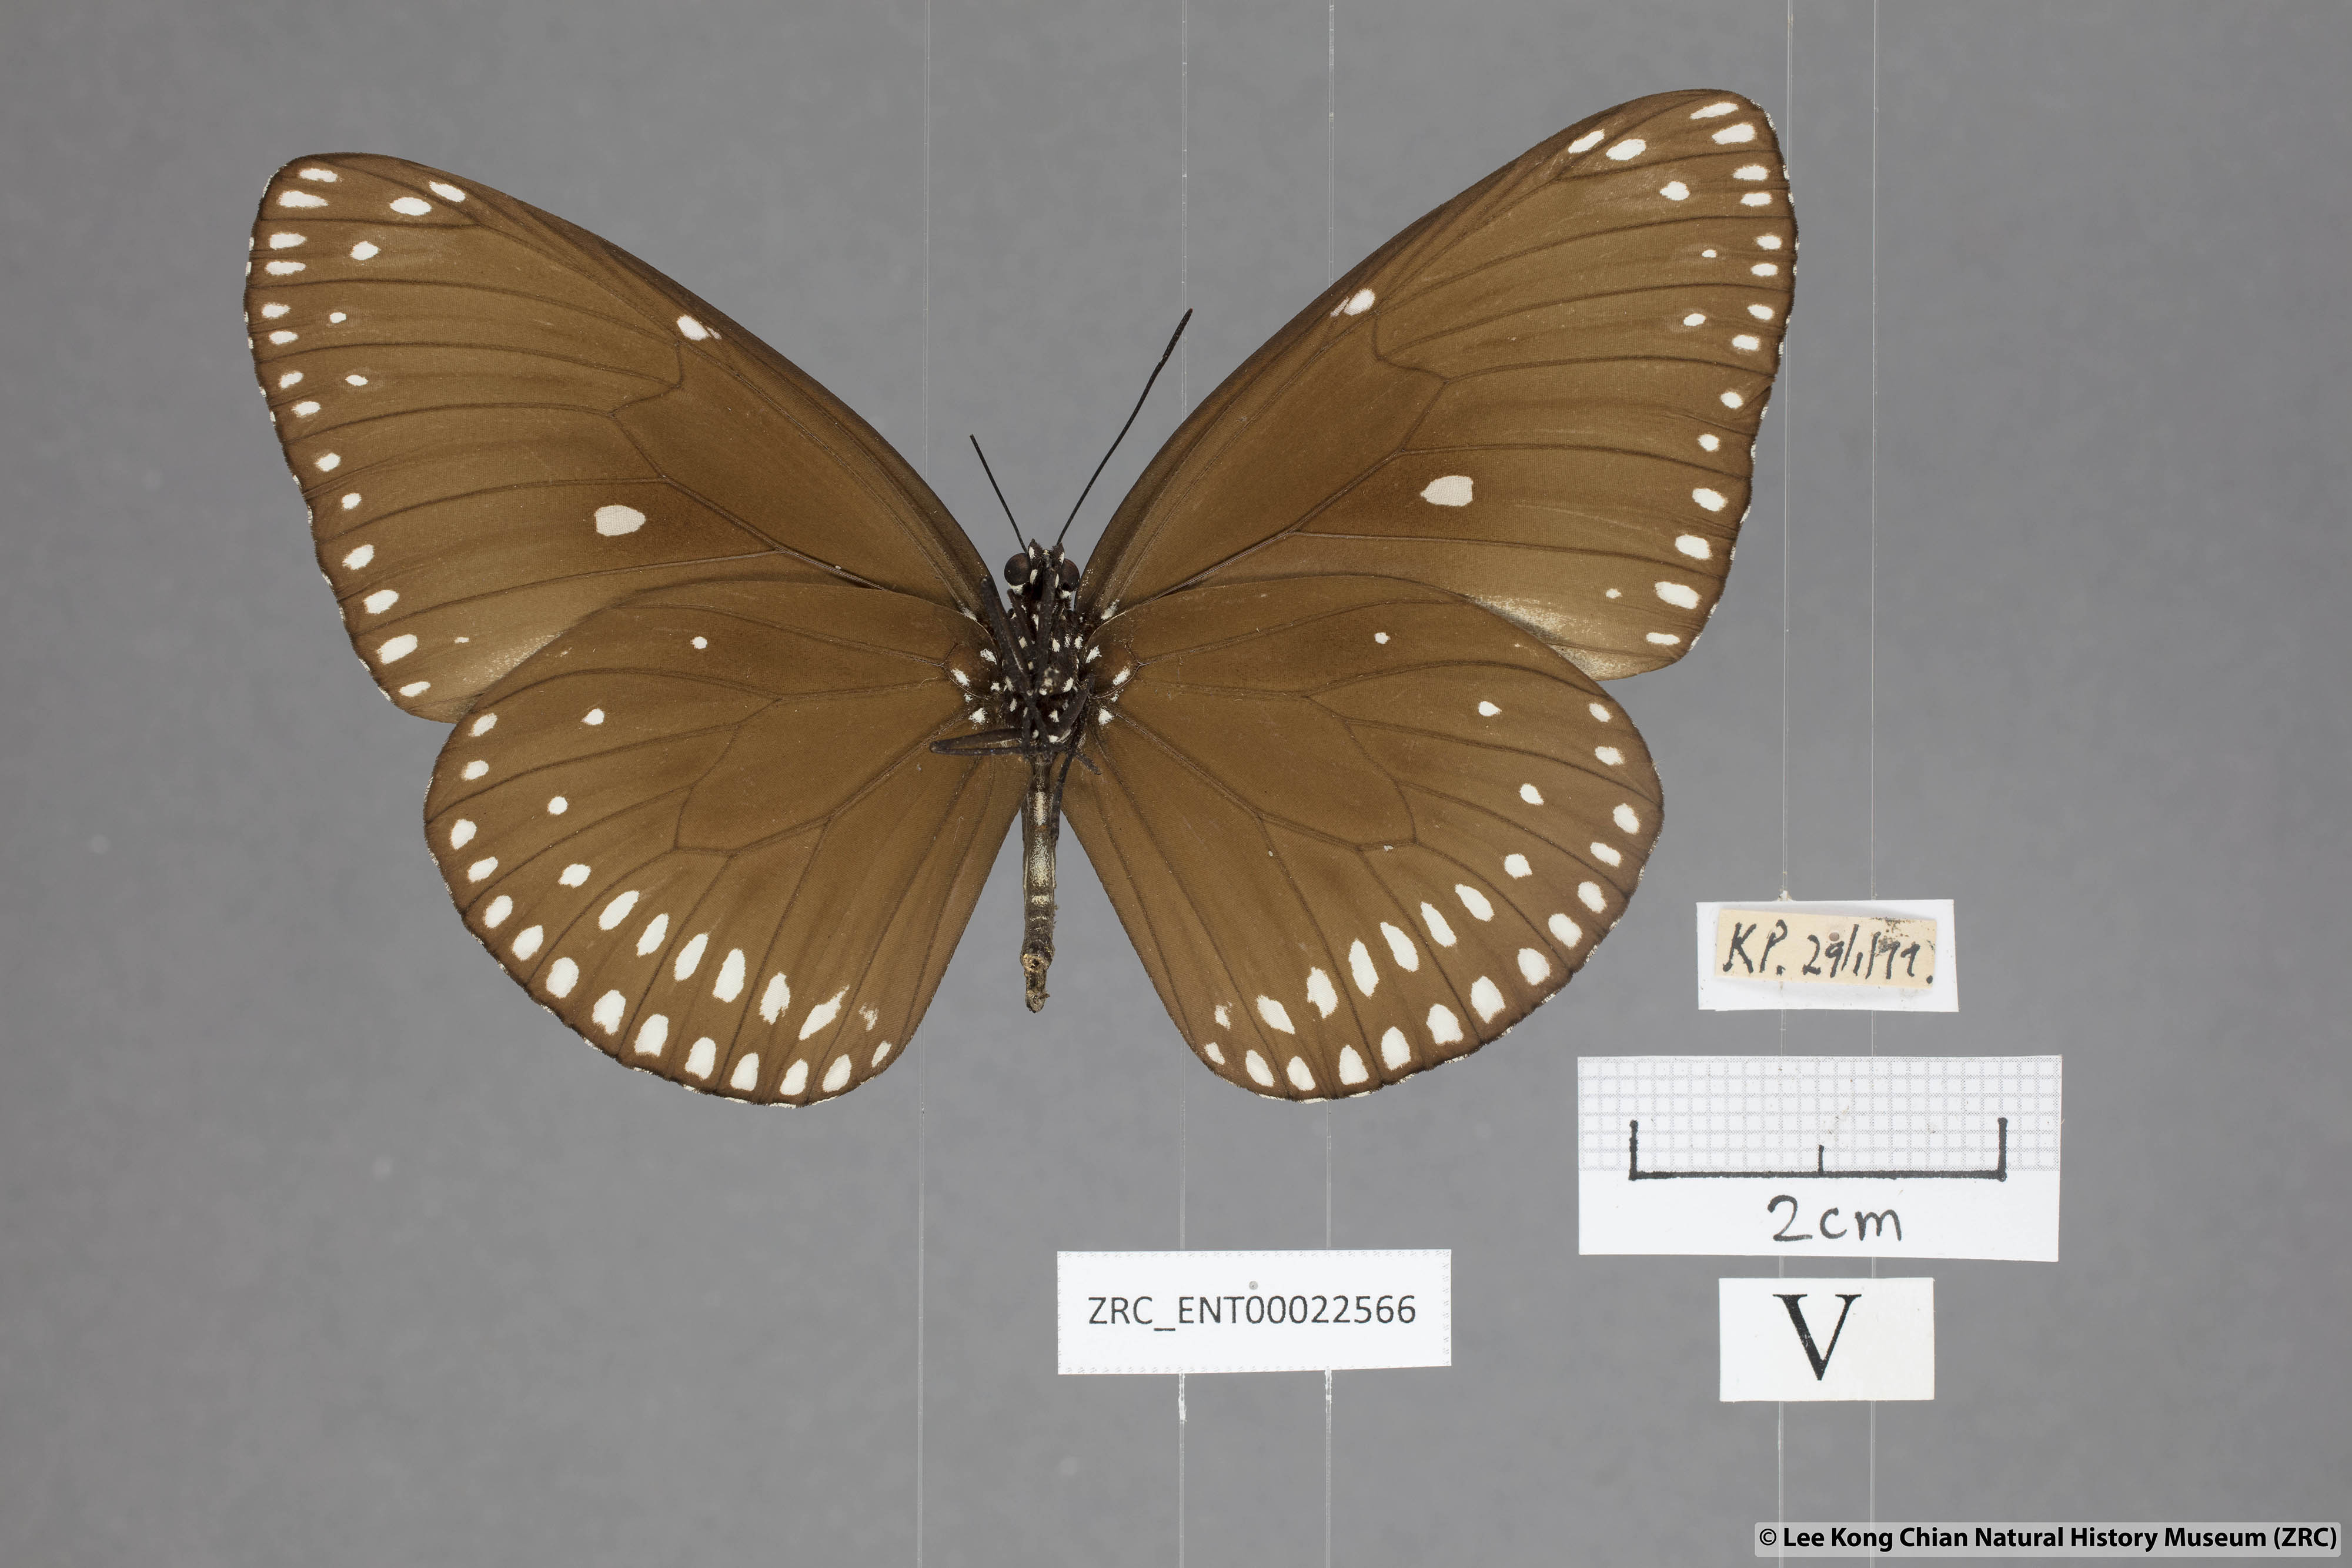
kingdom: Animalia
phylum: Arthropoda
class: Insecta
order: Lepidoptera
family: Nymphalidae
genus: Euploea
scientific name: Euploea klugii
